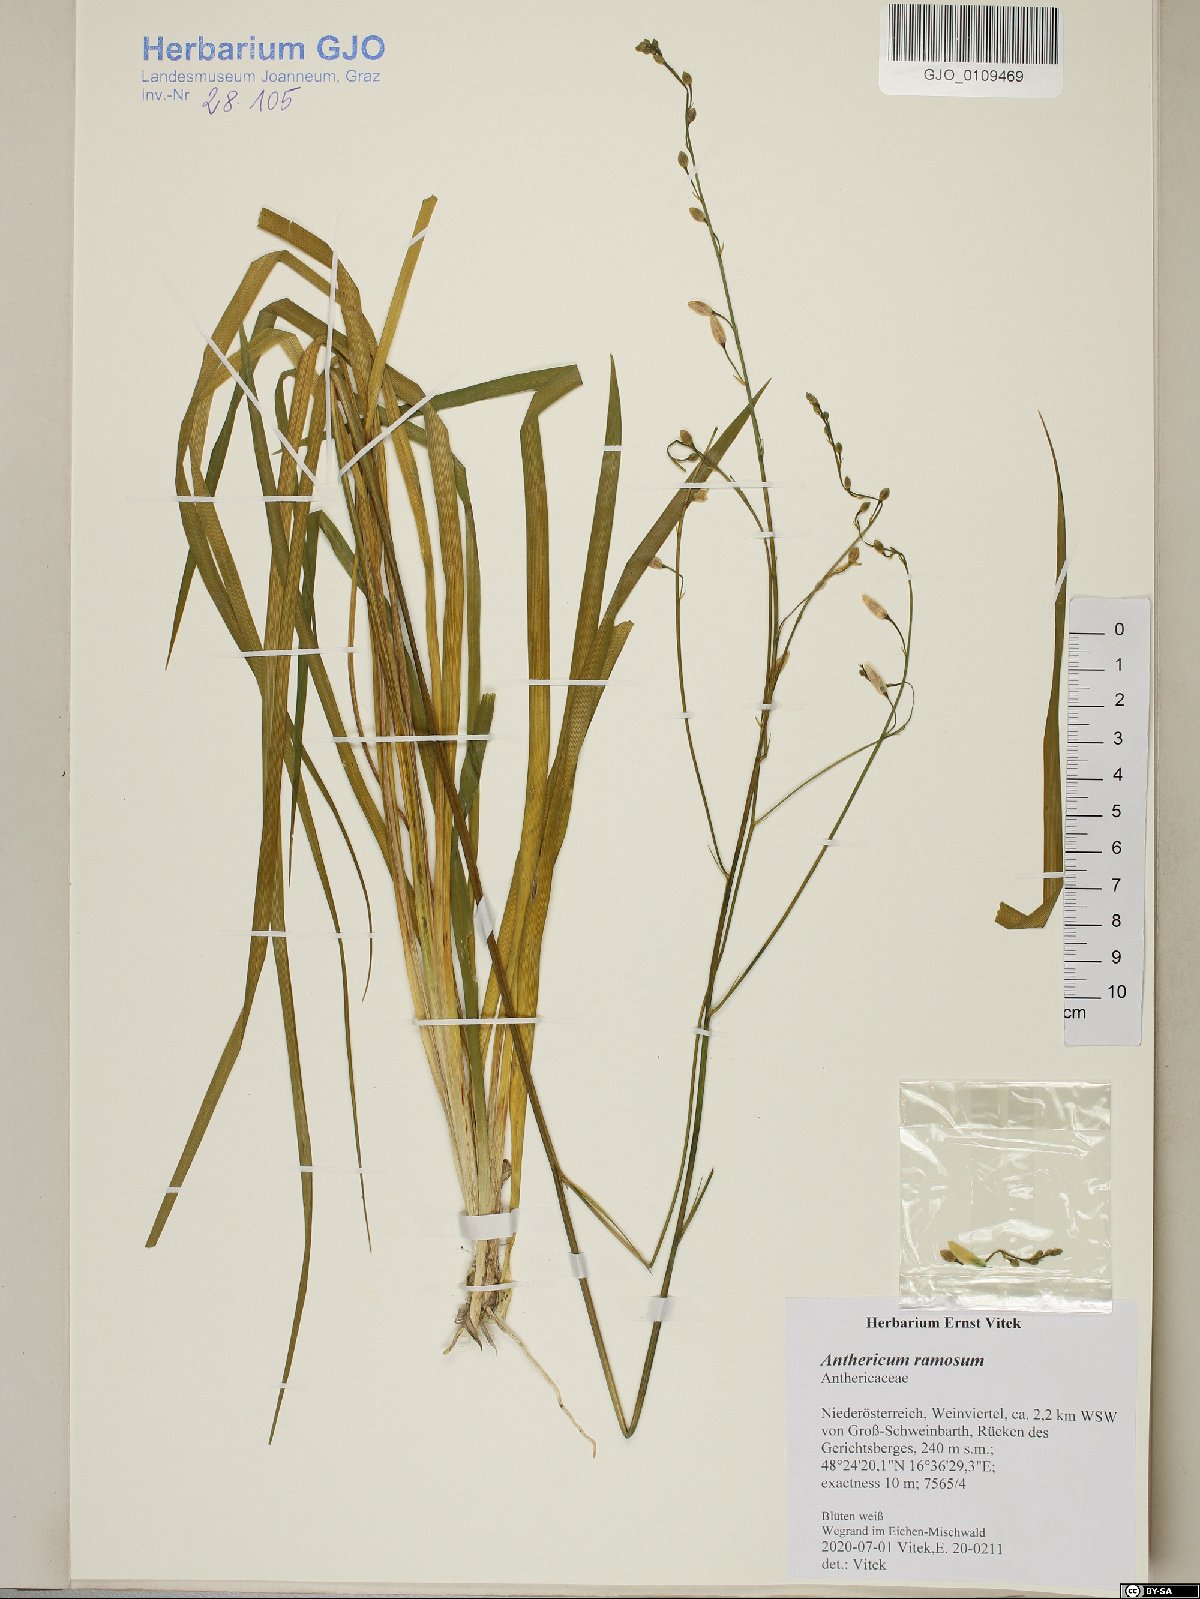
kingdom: Plantae
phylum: Tracheophyta
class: Liliopsida
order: Asparagales
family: Asparagaceae
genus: Anthericum
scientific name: Anthericum ramosum
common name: Branched st. bernard's-lily
